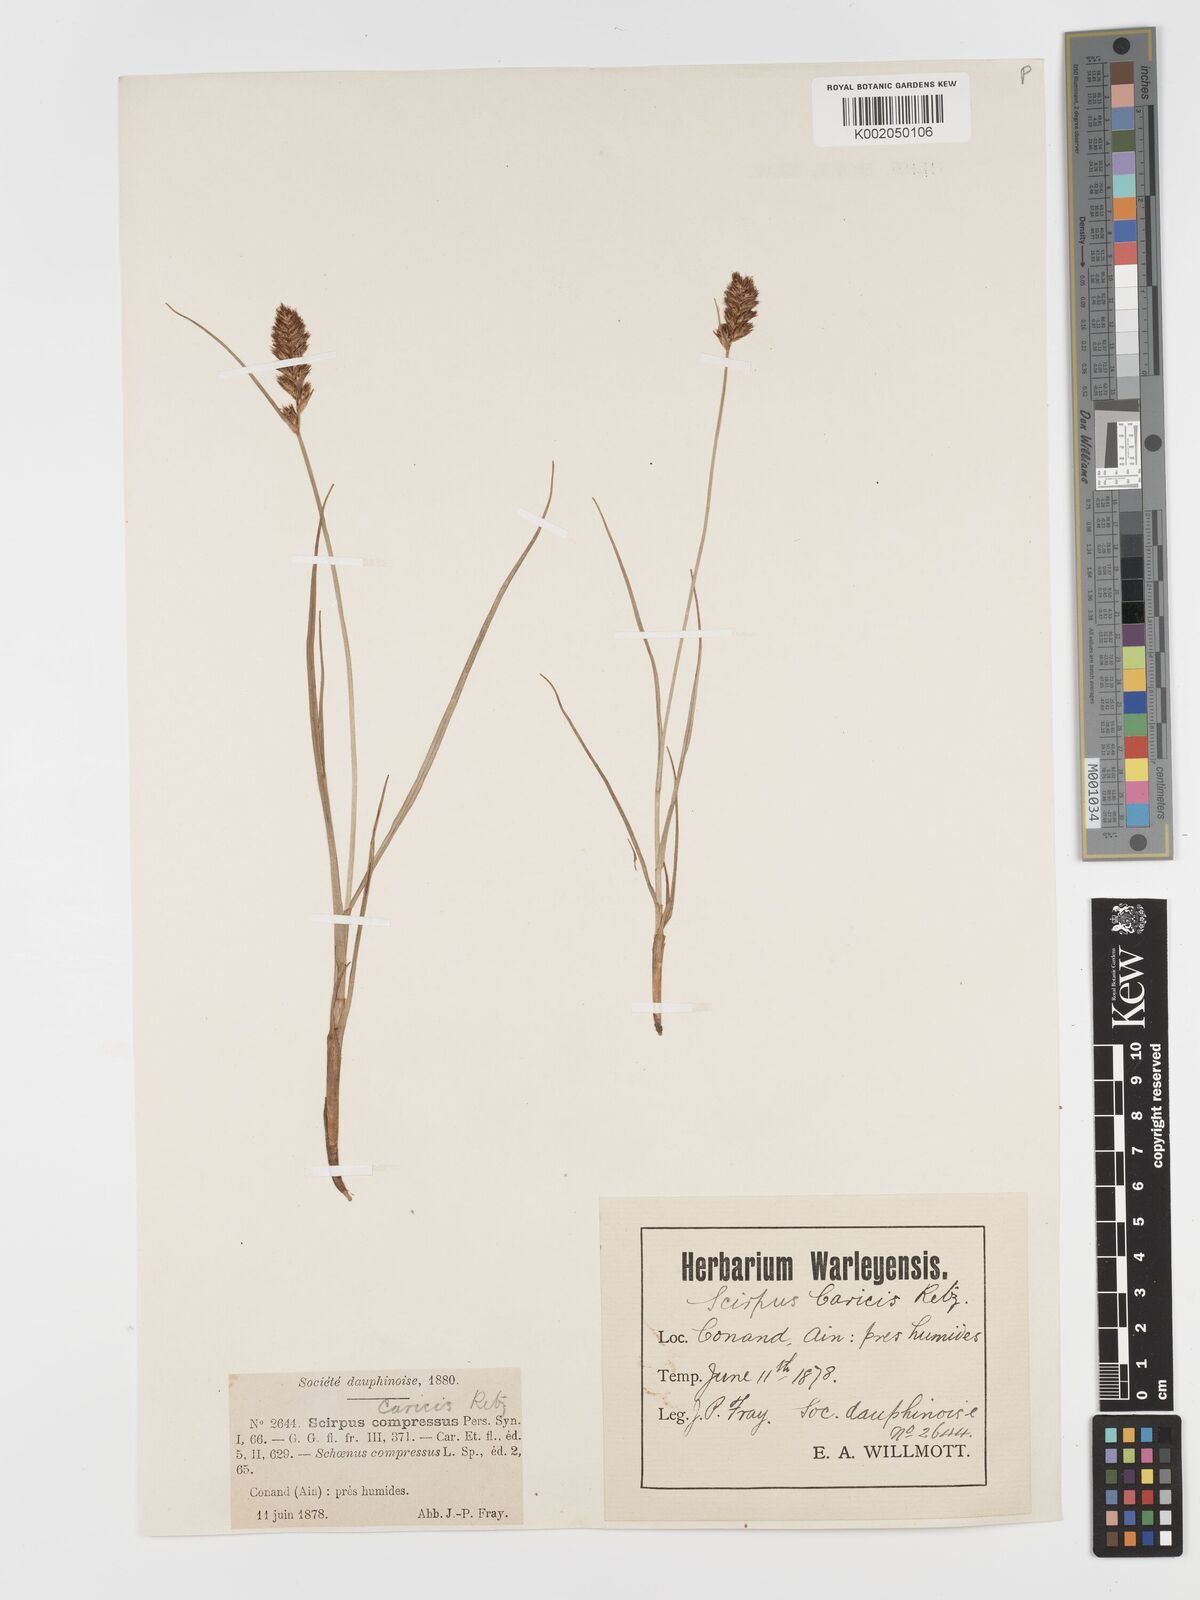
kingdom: Plantae
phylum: Tracheophyta
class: Liliopsida
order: Poales
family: Cyperaceae
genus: Blysmus
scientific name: Blysmus compressus
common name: Flat-sedge
